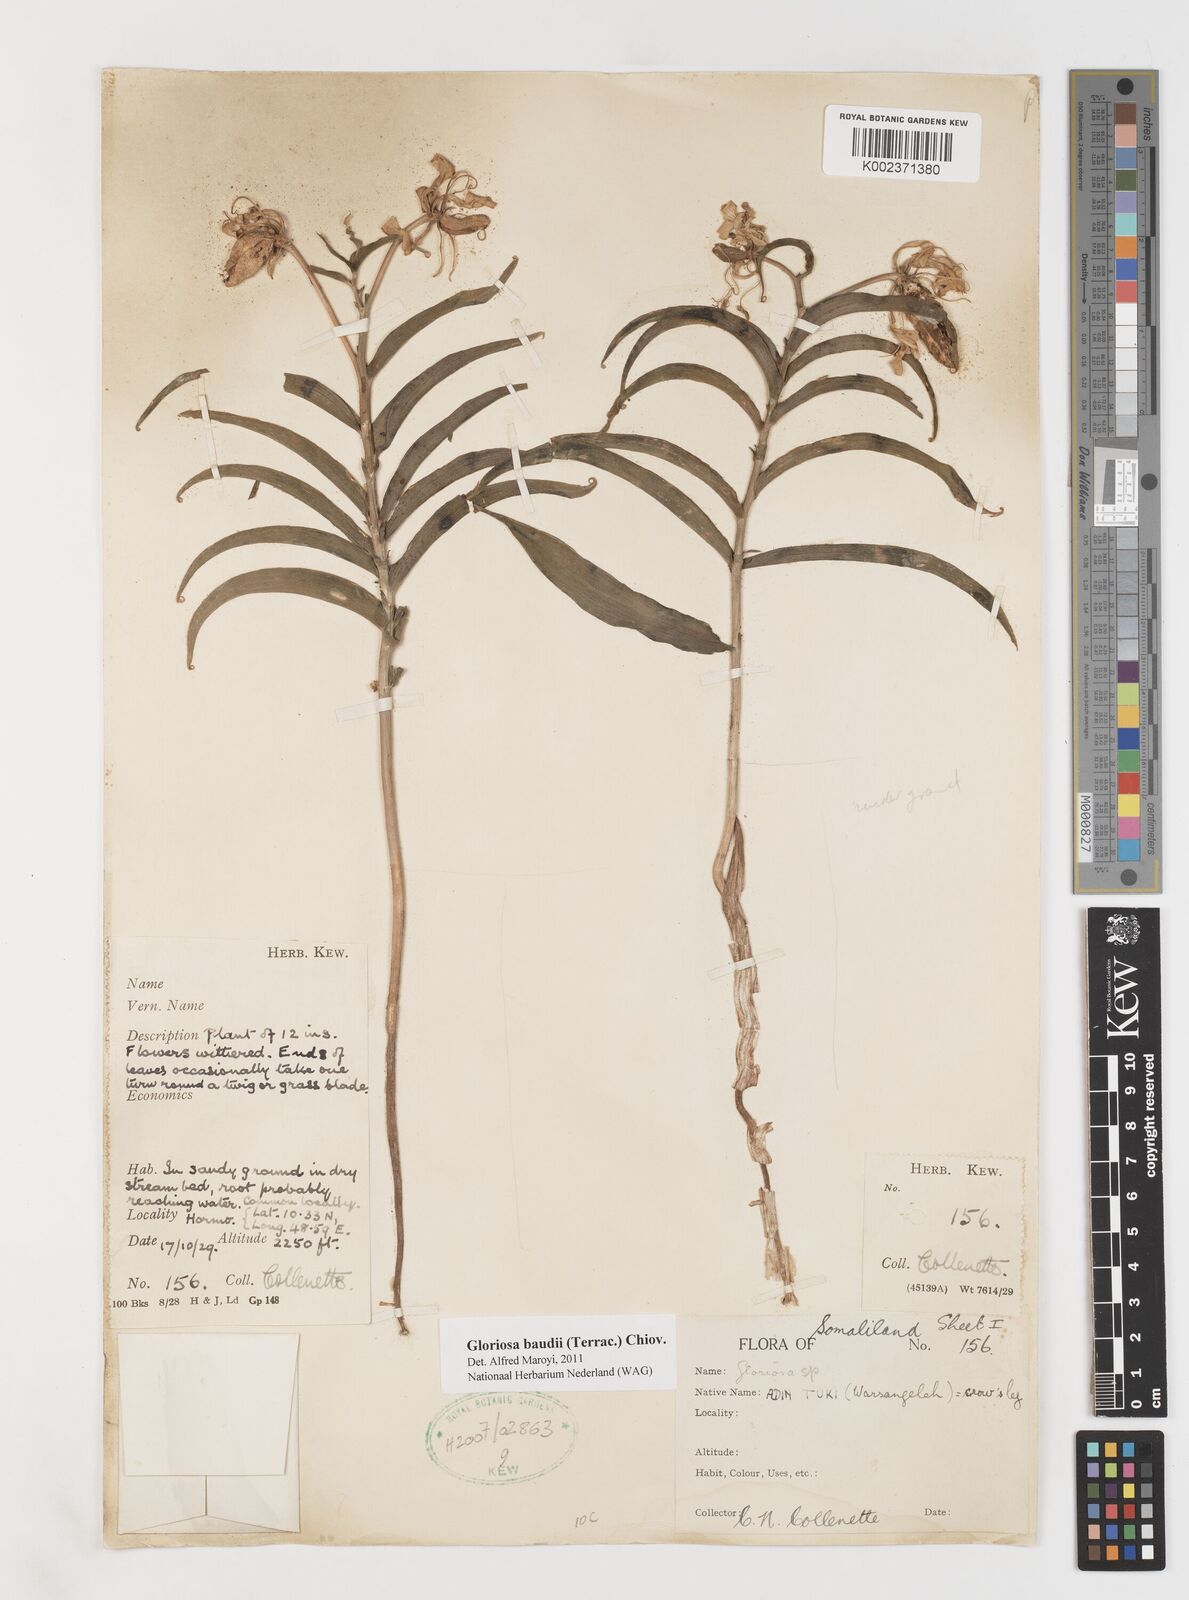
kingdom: Plantae
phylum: Tracheophyta
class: Liliopsida
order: Liliales
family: Colchicaceae
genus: Gloriosa
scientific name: Gloriosa baudii
